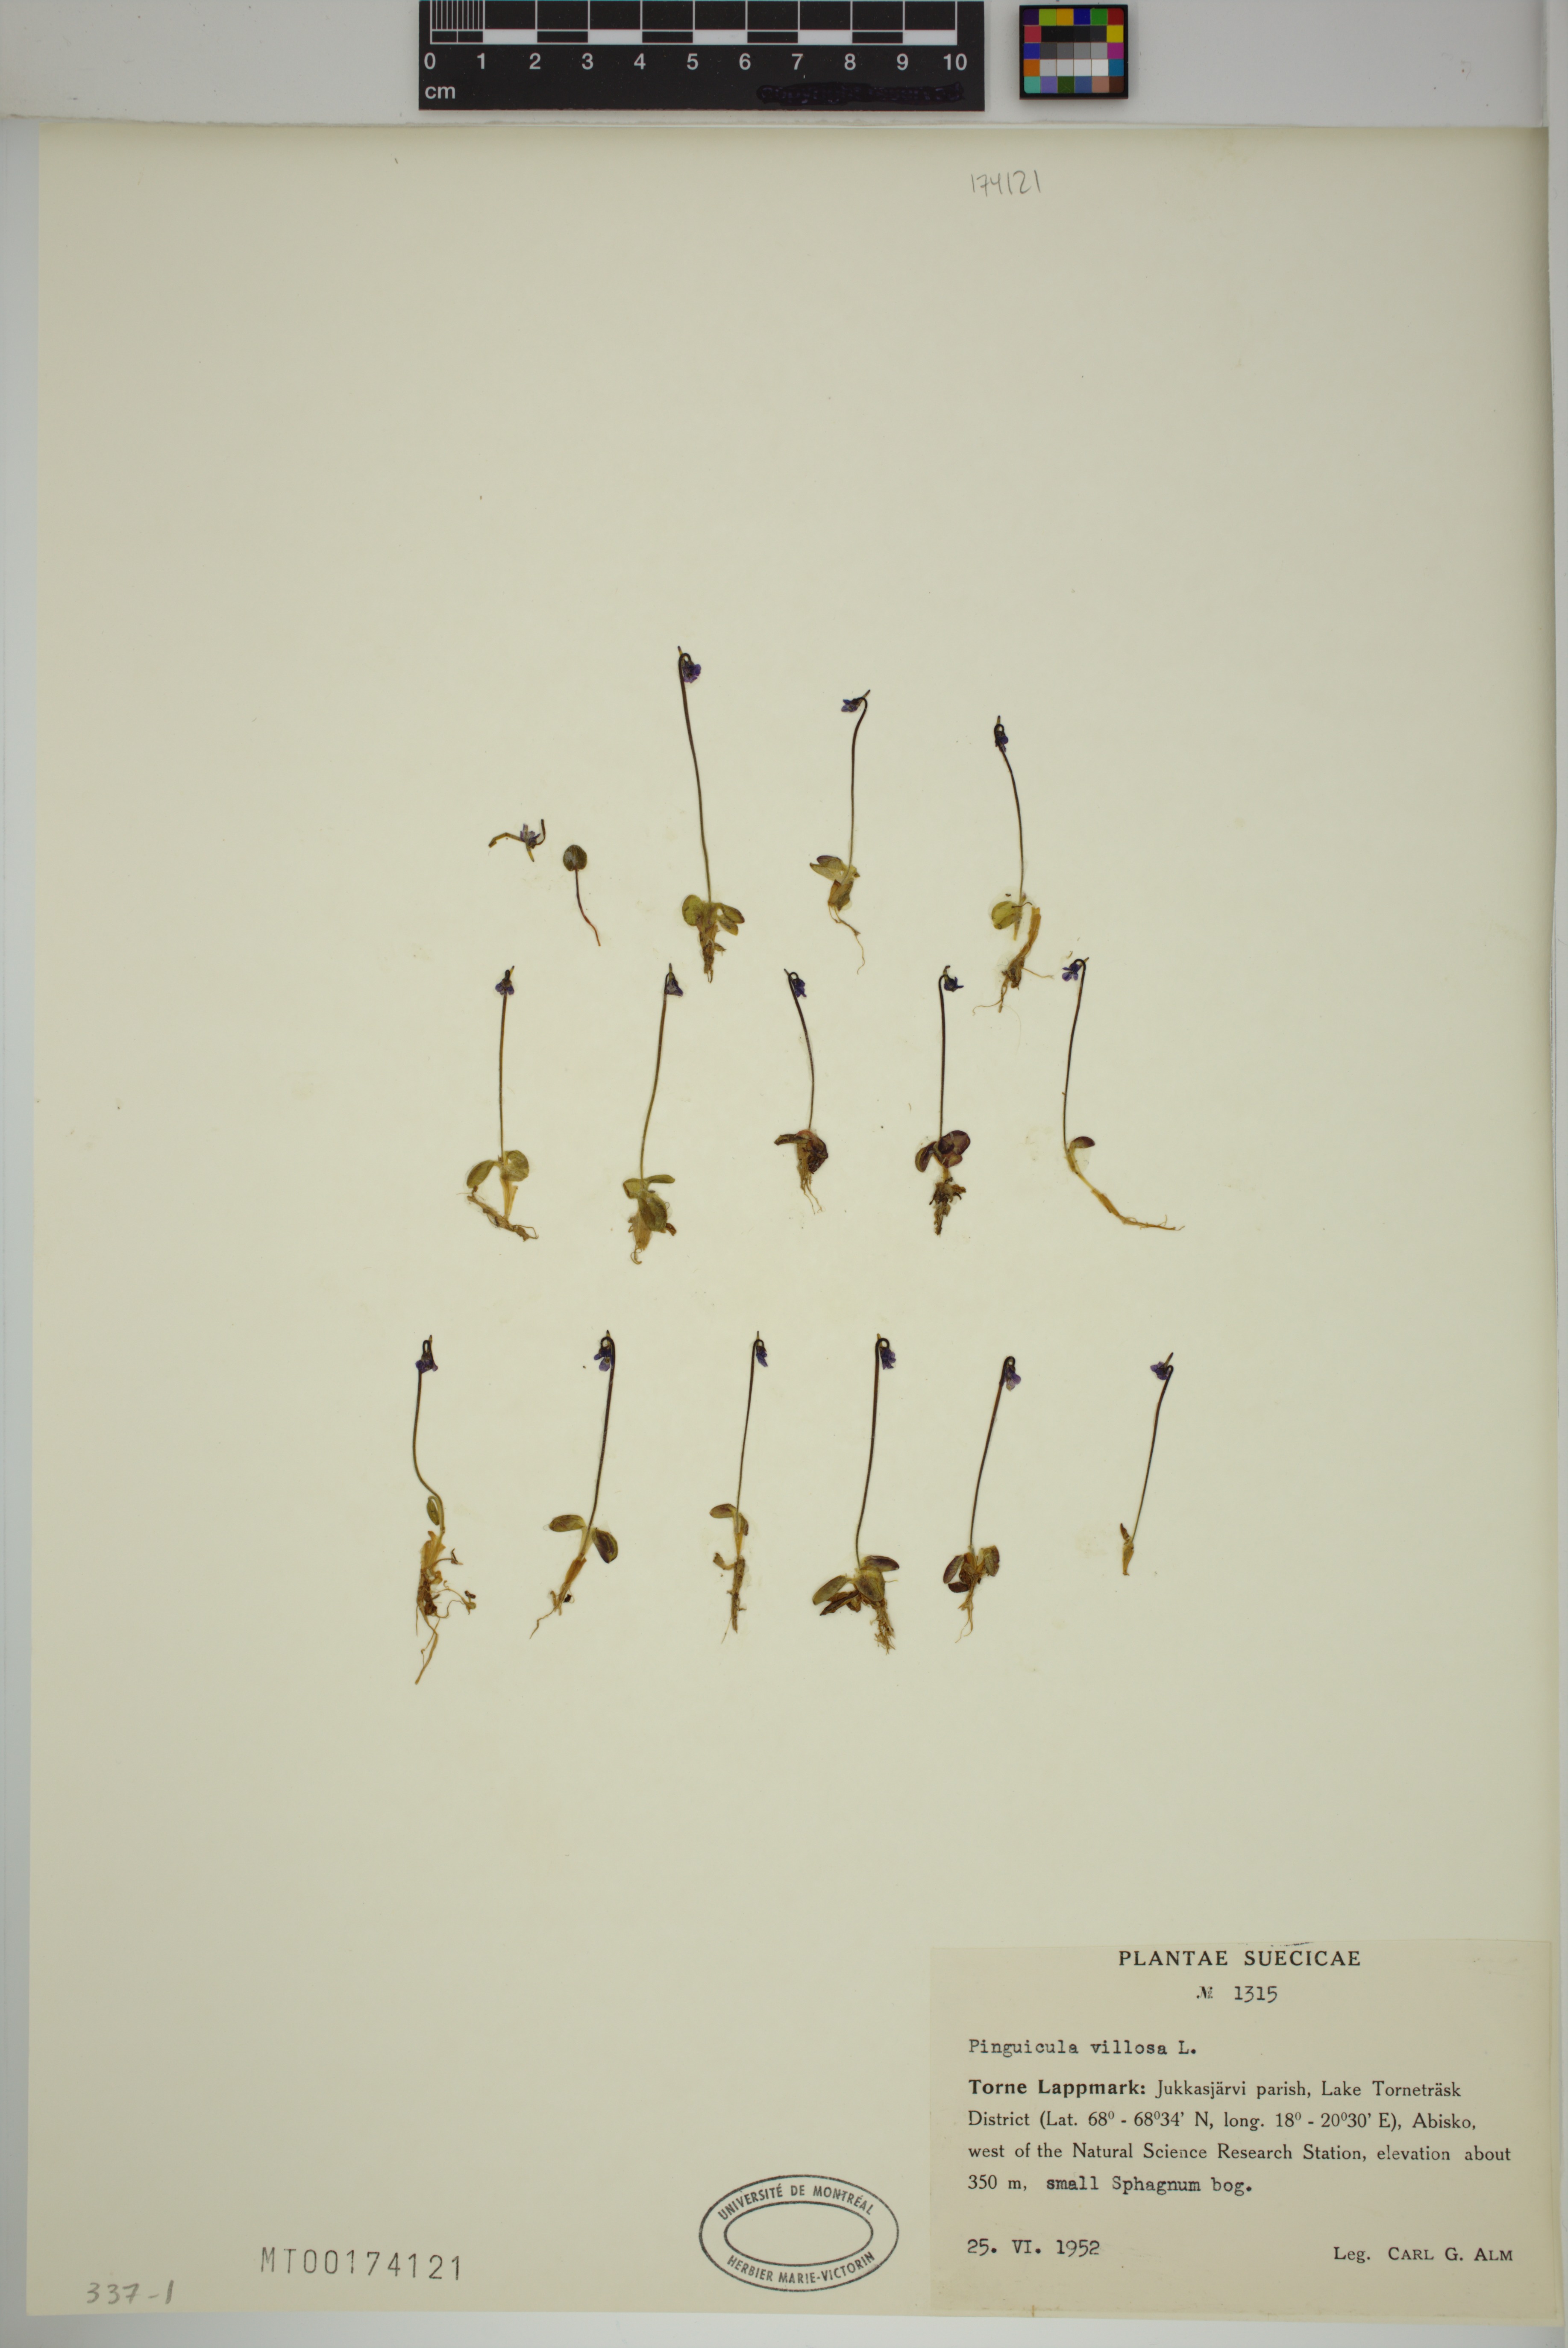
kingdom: Plantae
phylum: Tracheophyta
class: Magnoliopsida
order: Lamiales
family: Lentibulariaceae
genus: Pinguicula
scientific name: Pinguicula villosa
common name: Hairy butterwort
